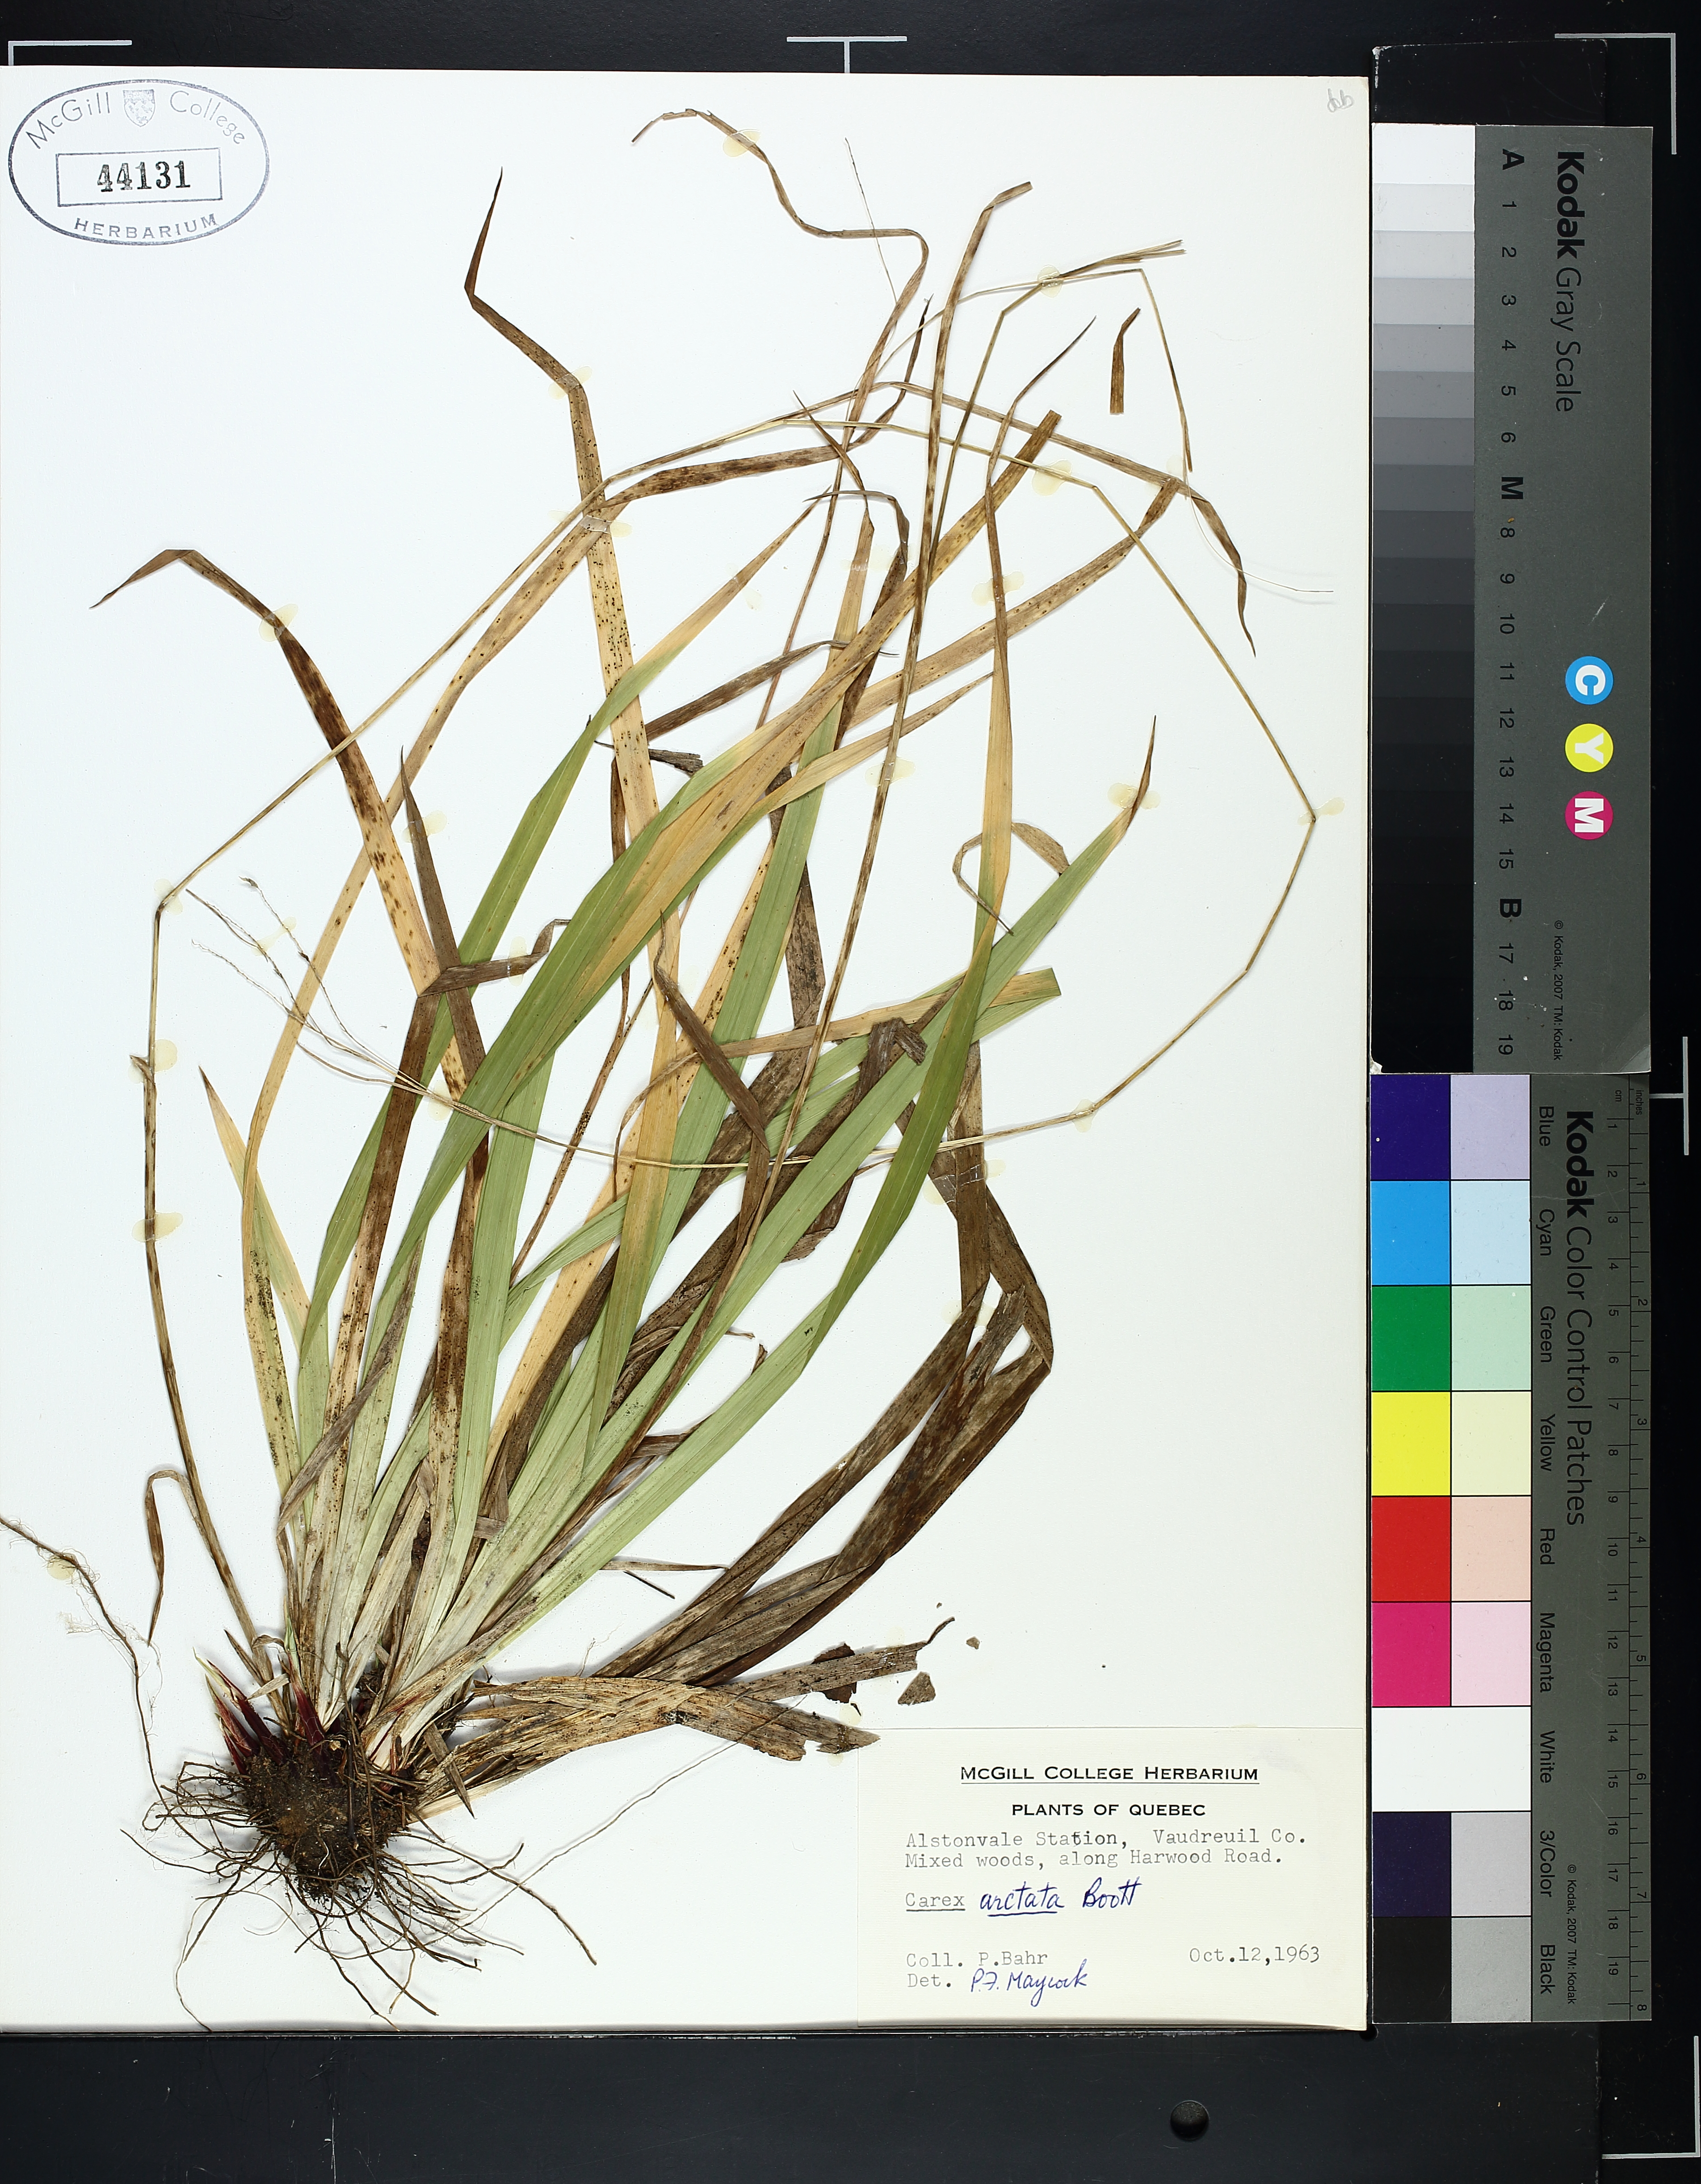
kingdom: Plantae
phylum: Tracheophyta
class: Liliopsida
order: Poales
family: Cyperaceae
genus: Carex
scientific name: Carex arctata
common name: Black sedge
